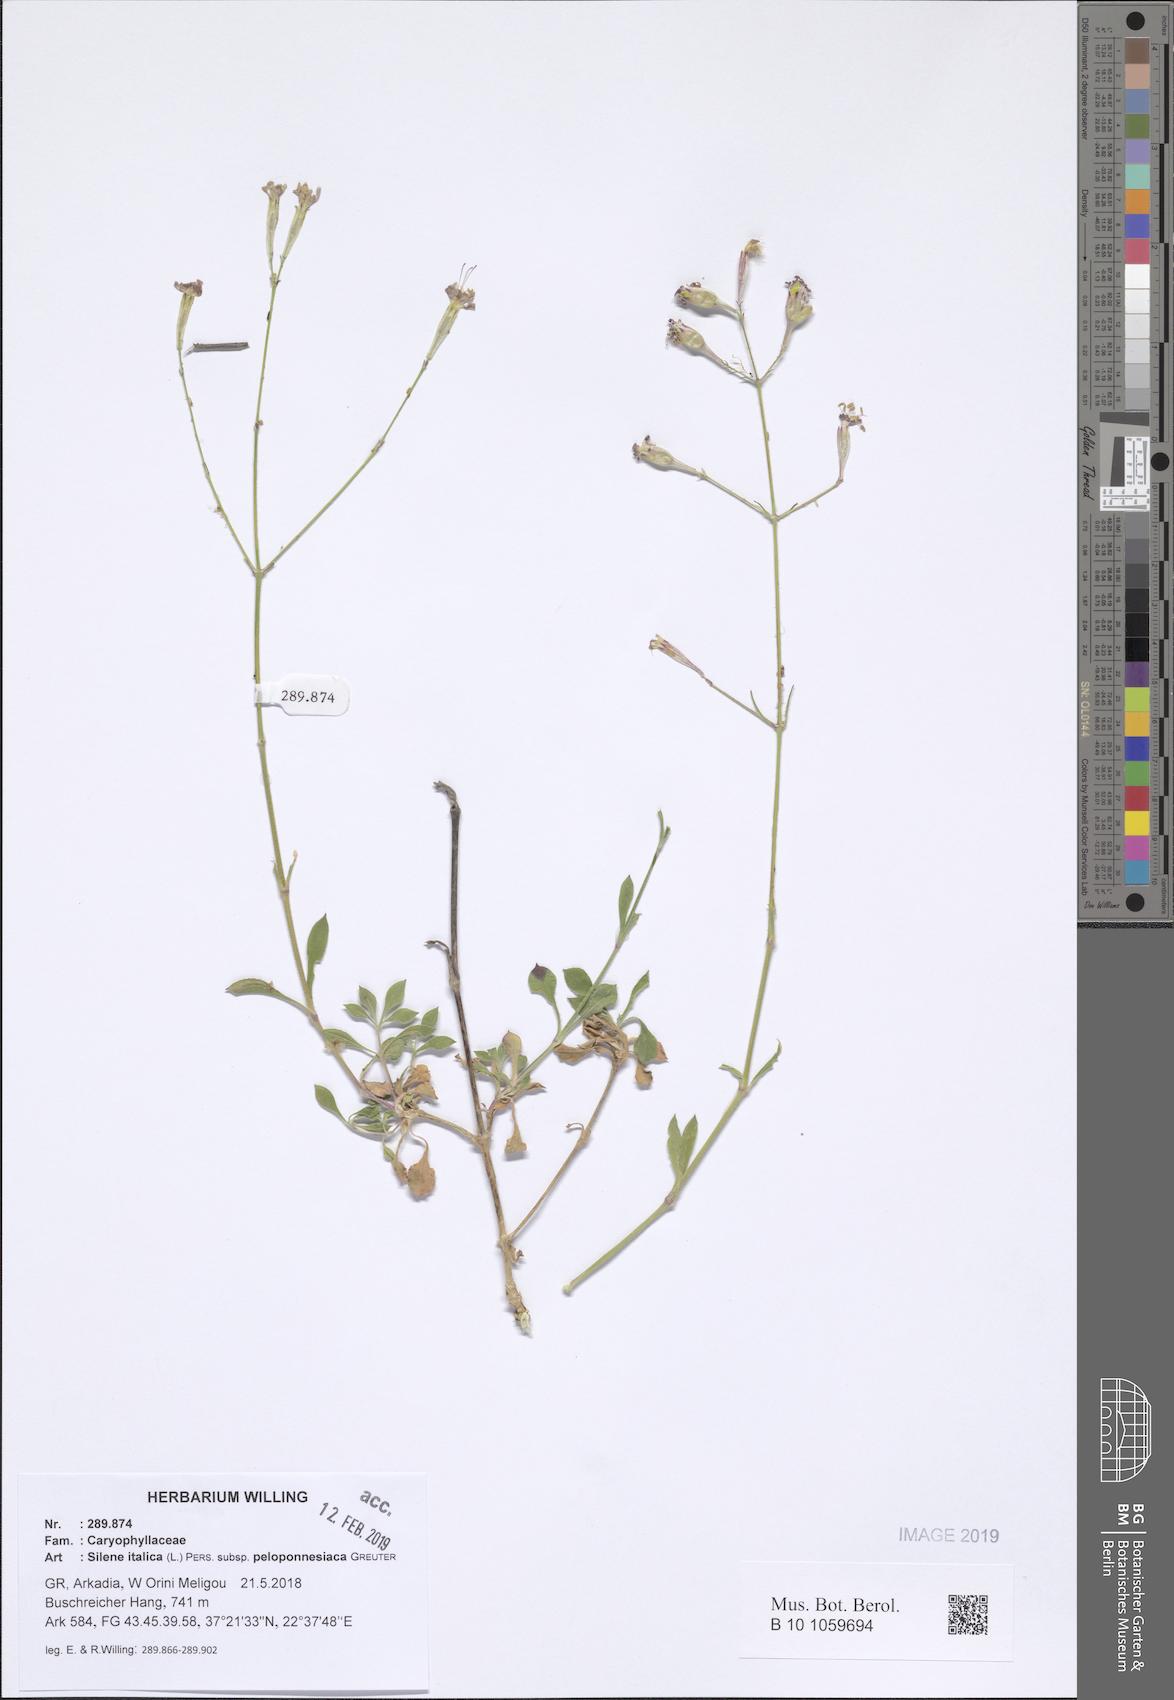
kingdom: Plantae
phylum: Tracheophyta
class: Magnoliopsida
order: Caryophyllales
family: Caryophyllaceae
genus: Silene
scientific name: Silene italica
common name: Italian catchfly
